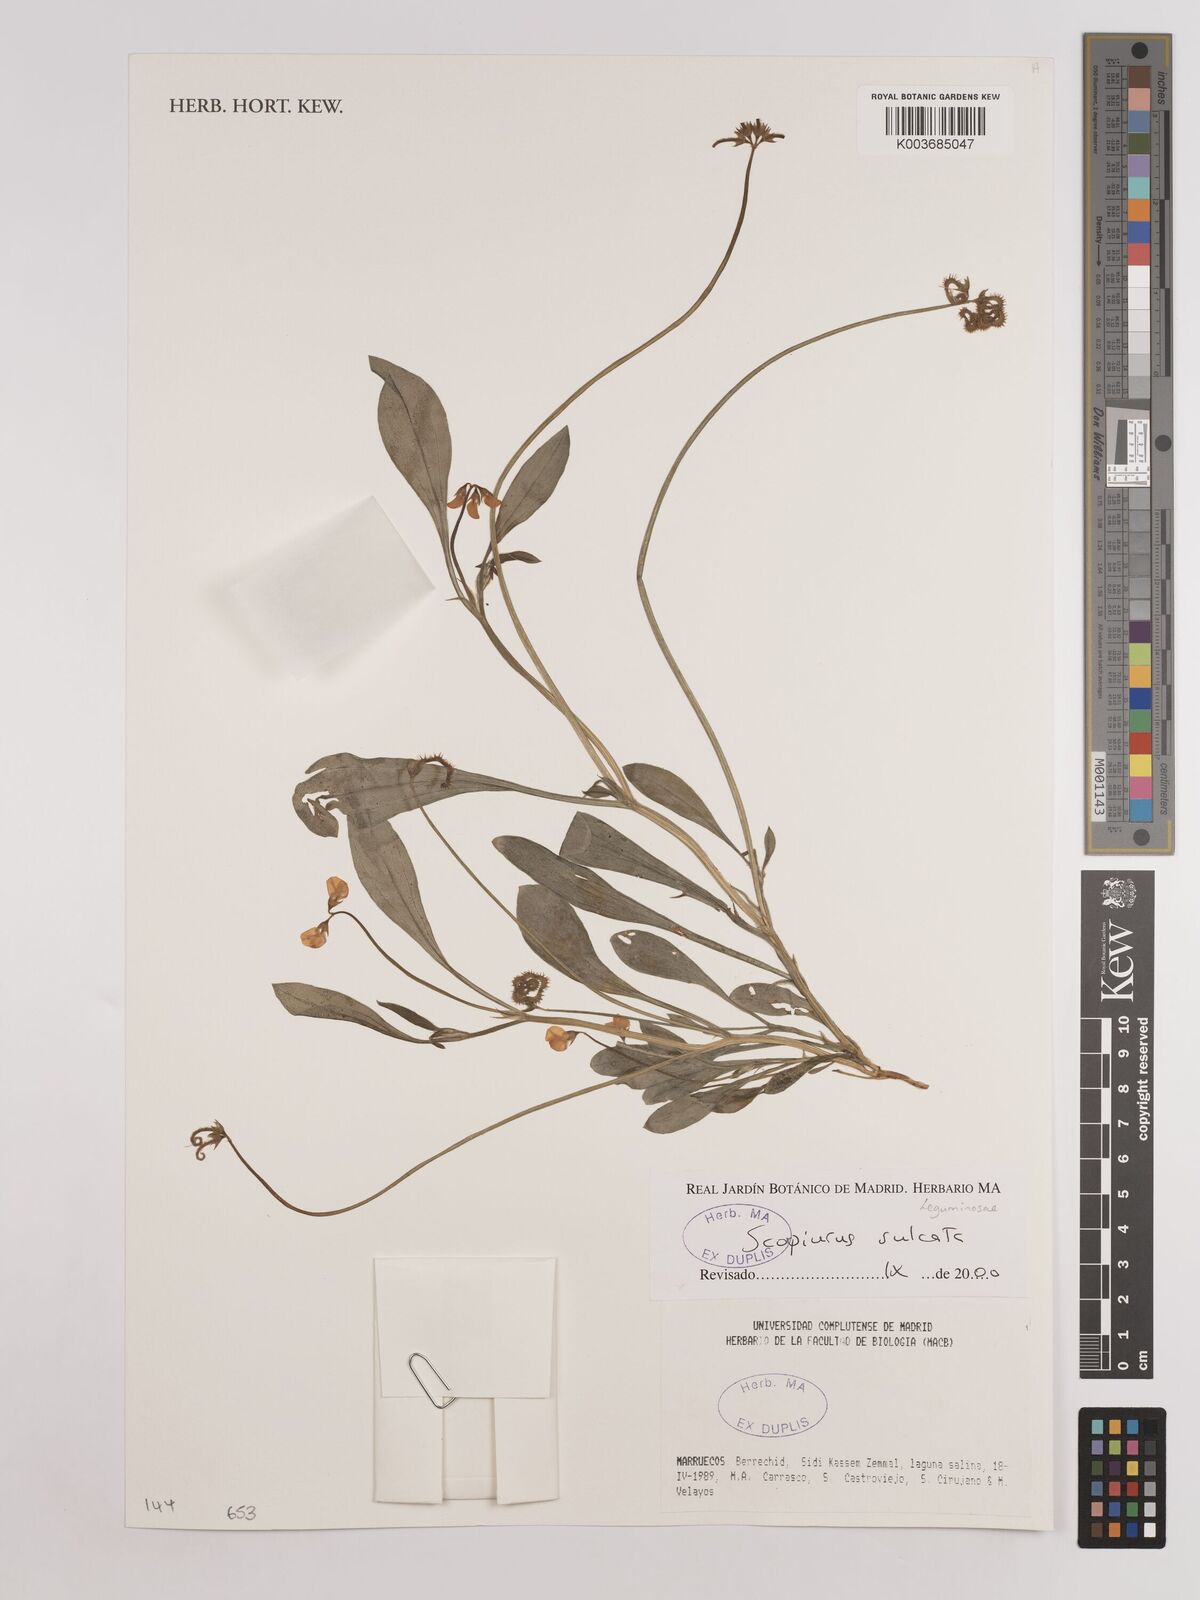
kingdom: Plantae
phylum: Tracheophyta
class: Magnoliopsida
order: Fabales
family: Fabaceae
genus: Scorpiurus
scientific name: Scorpiurus muricatus
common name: Caterpillar-plant
